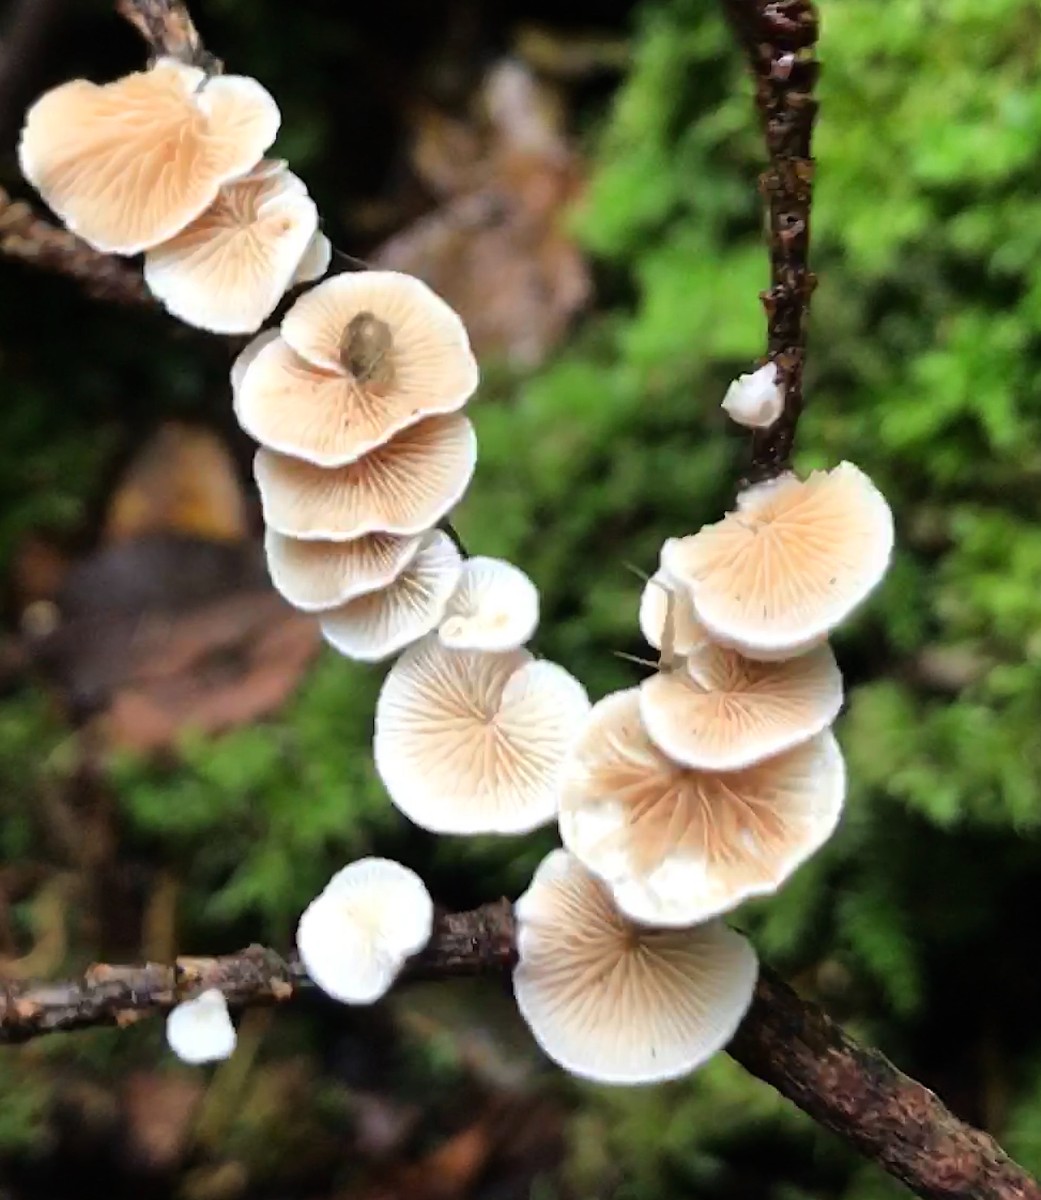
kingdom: Fungi
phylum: Basidiomycota
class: Agaricomycetes
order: Agaricales
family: Crepidotaceae
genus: Crepidotus
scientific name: Crepidotus
